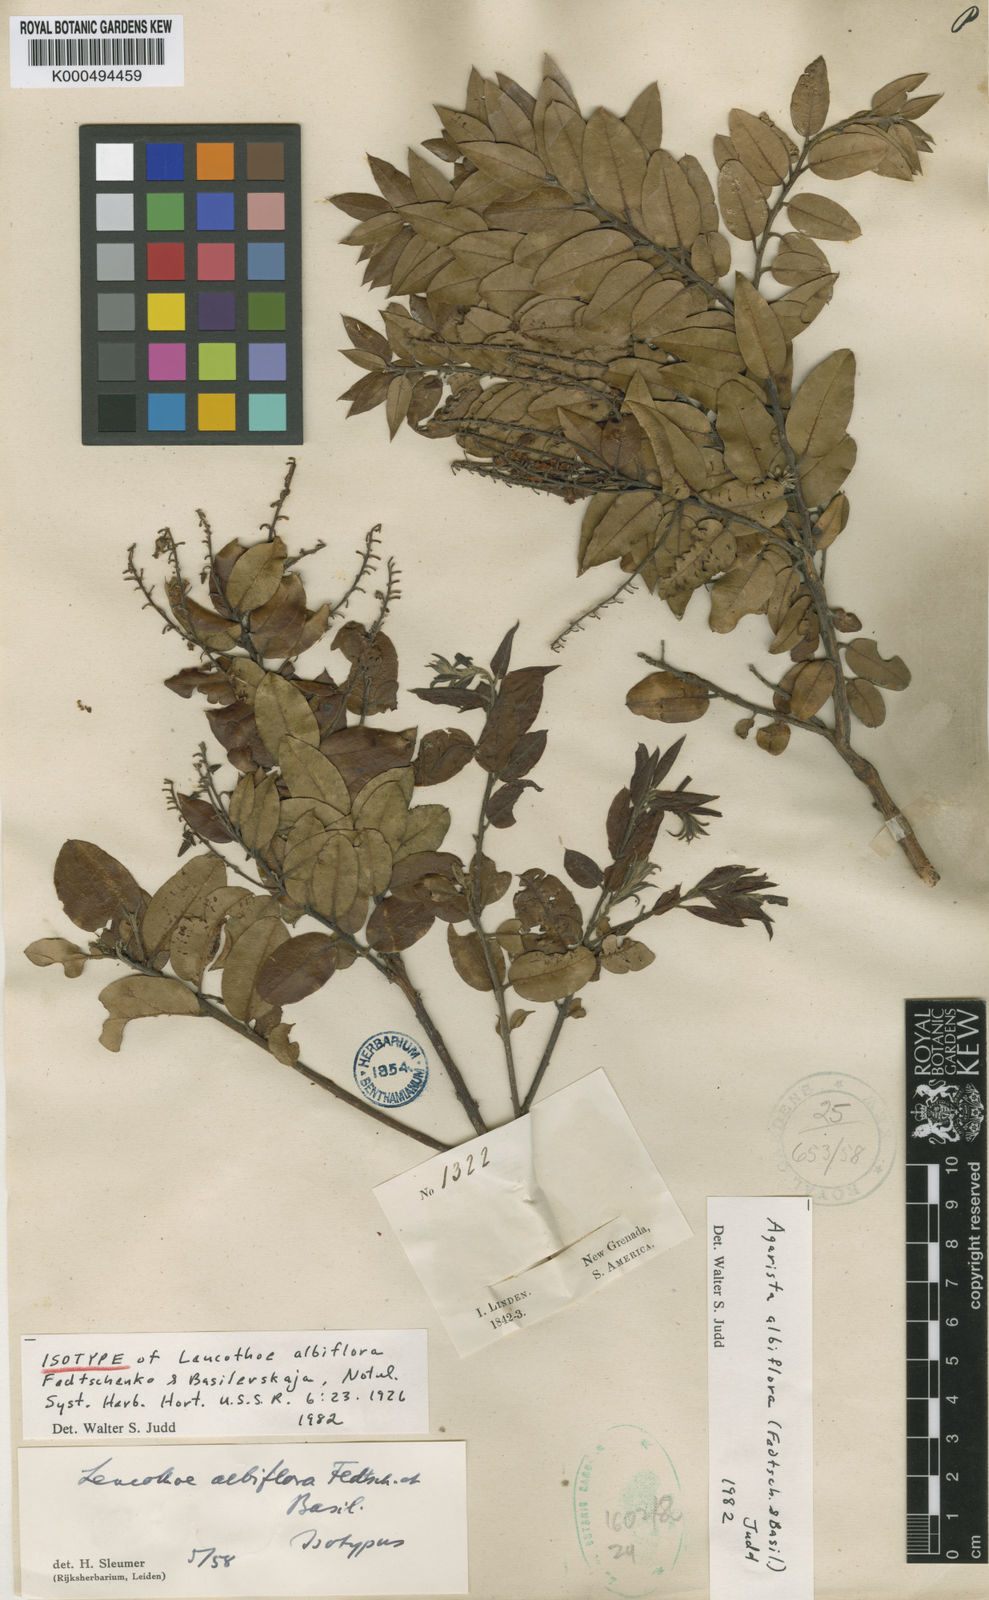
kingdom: Plantae
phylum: Tracheophyta
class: Magnoliopsida
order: Ericales
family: Ericaceae
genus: Agarista
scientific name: Agarista albiflora
